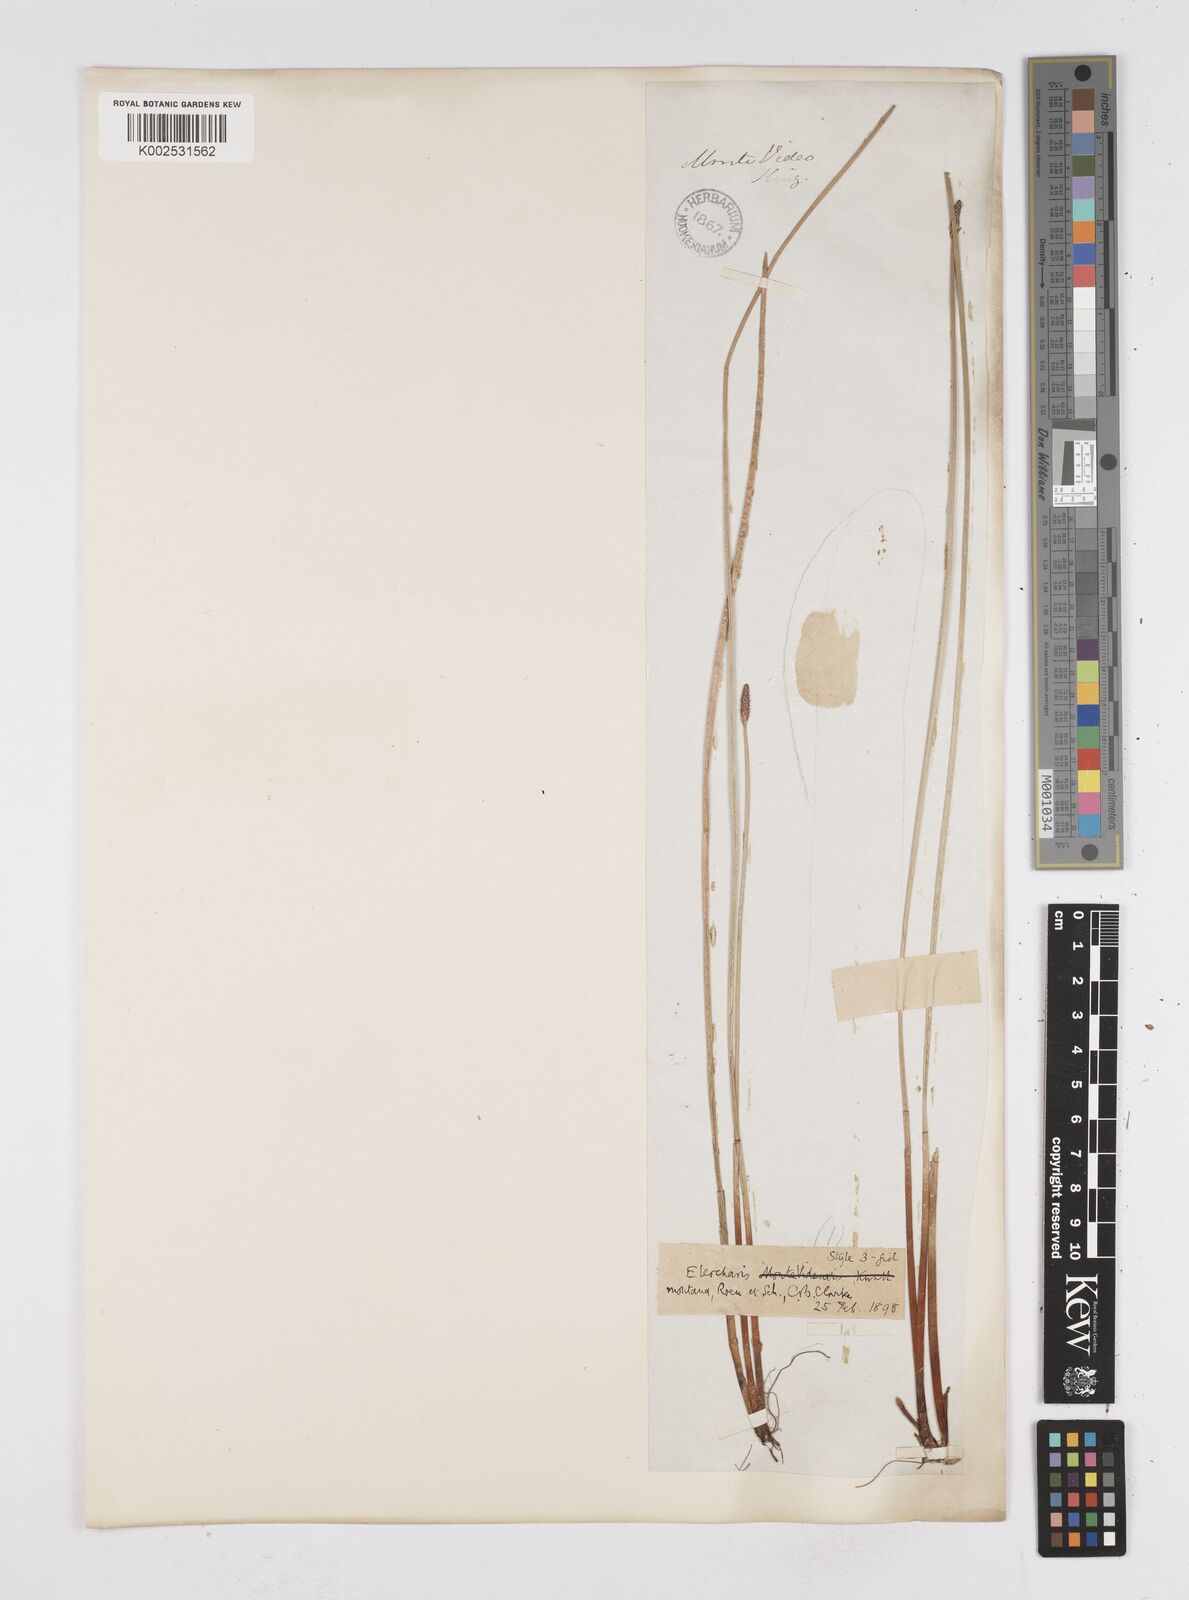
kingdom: Plantae
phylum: Tracheophyta
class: Liliopsida
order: Poales
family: Cyperaceae
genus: Eleocharis
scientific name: Eleocharis montana
